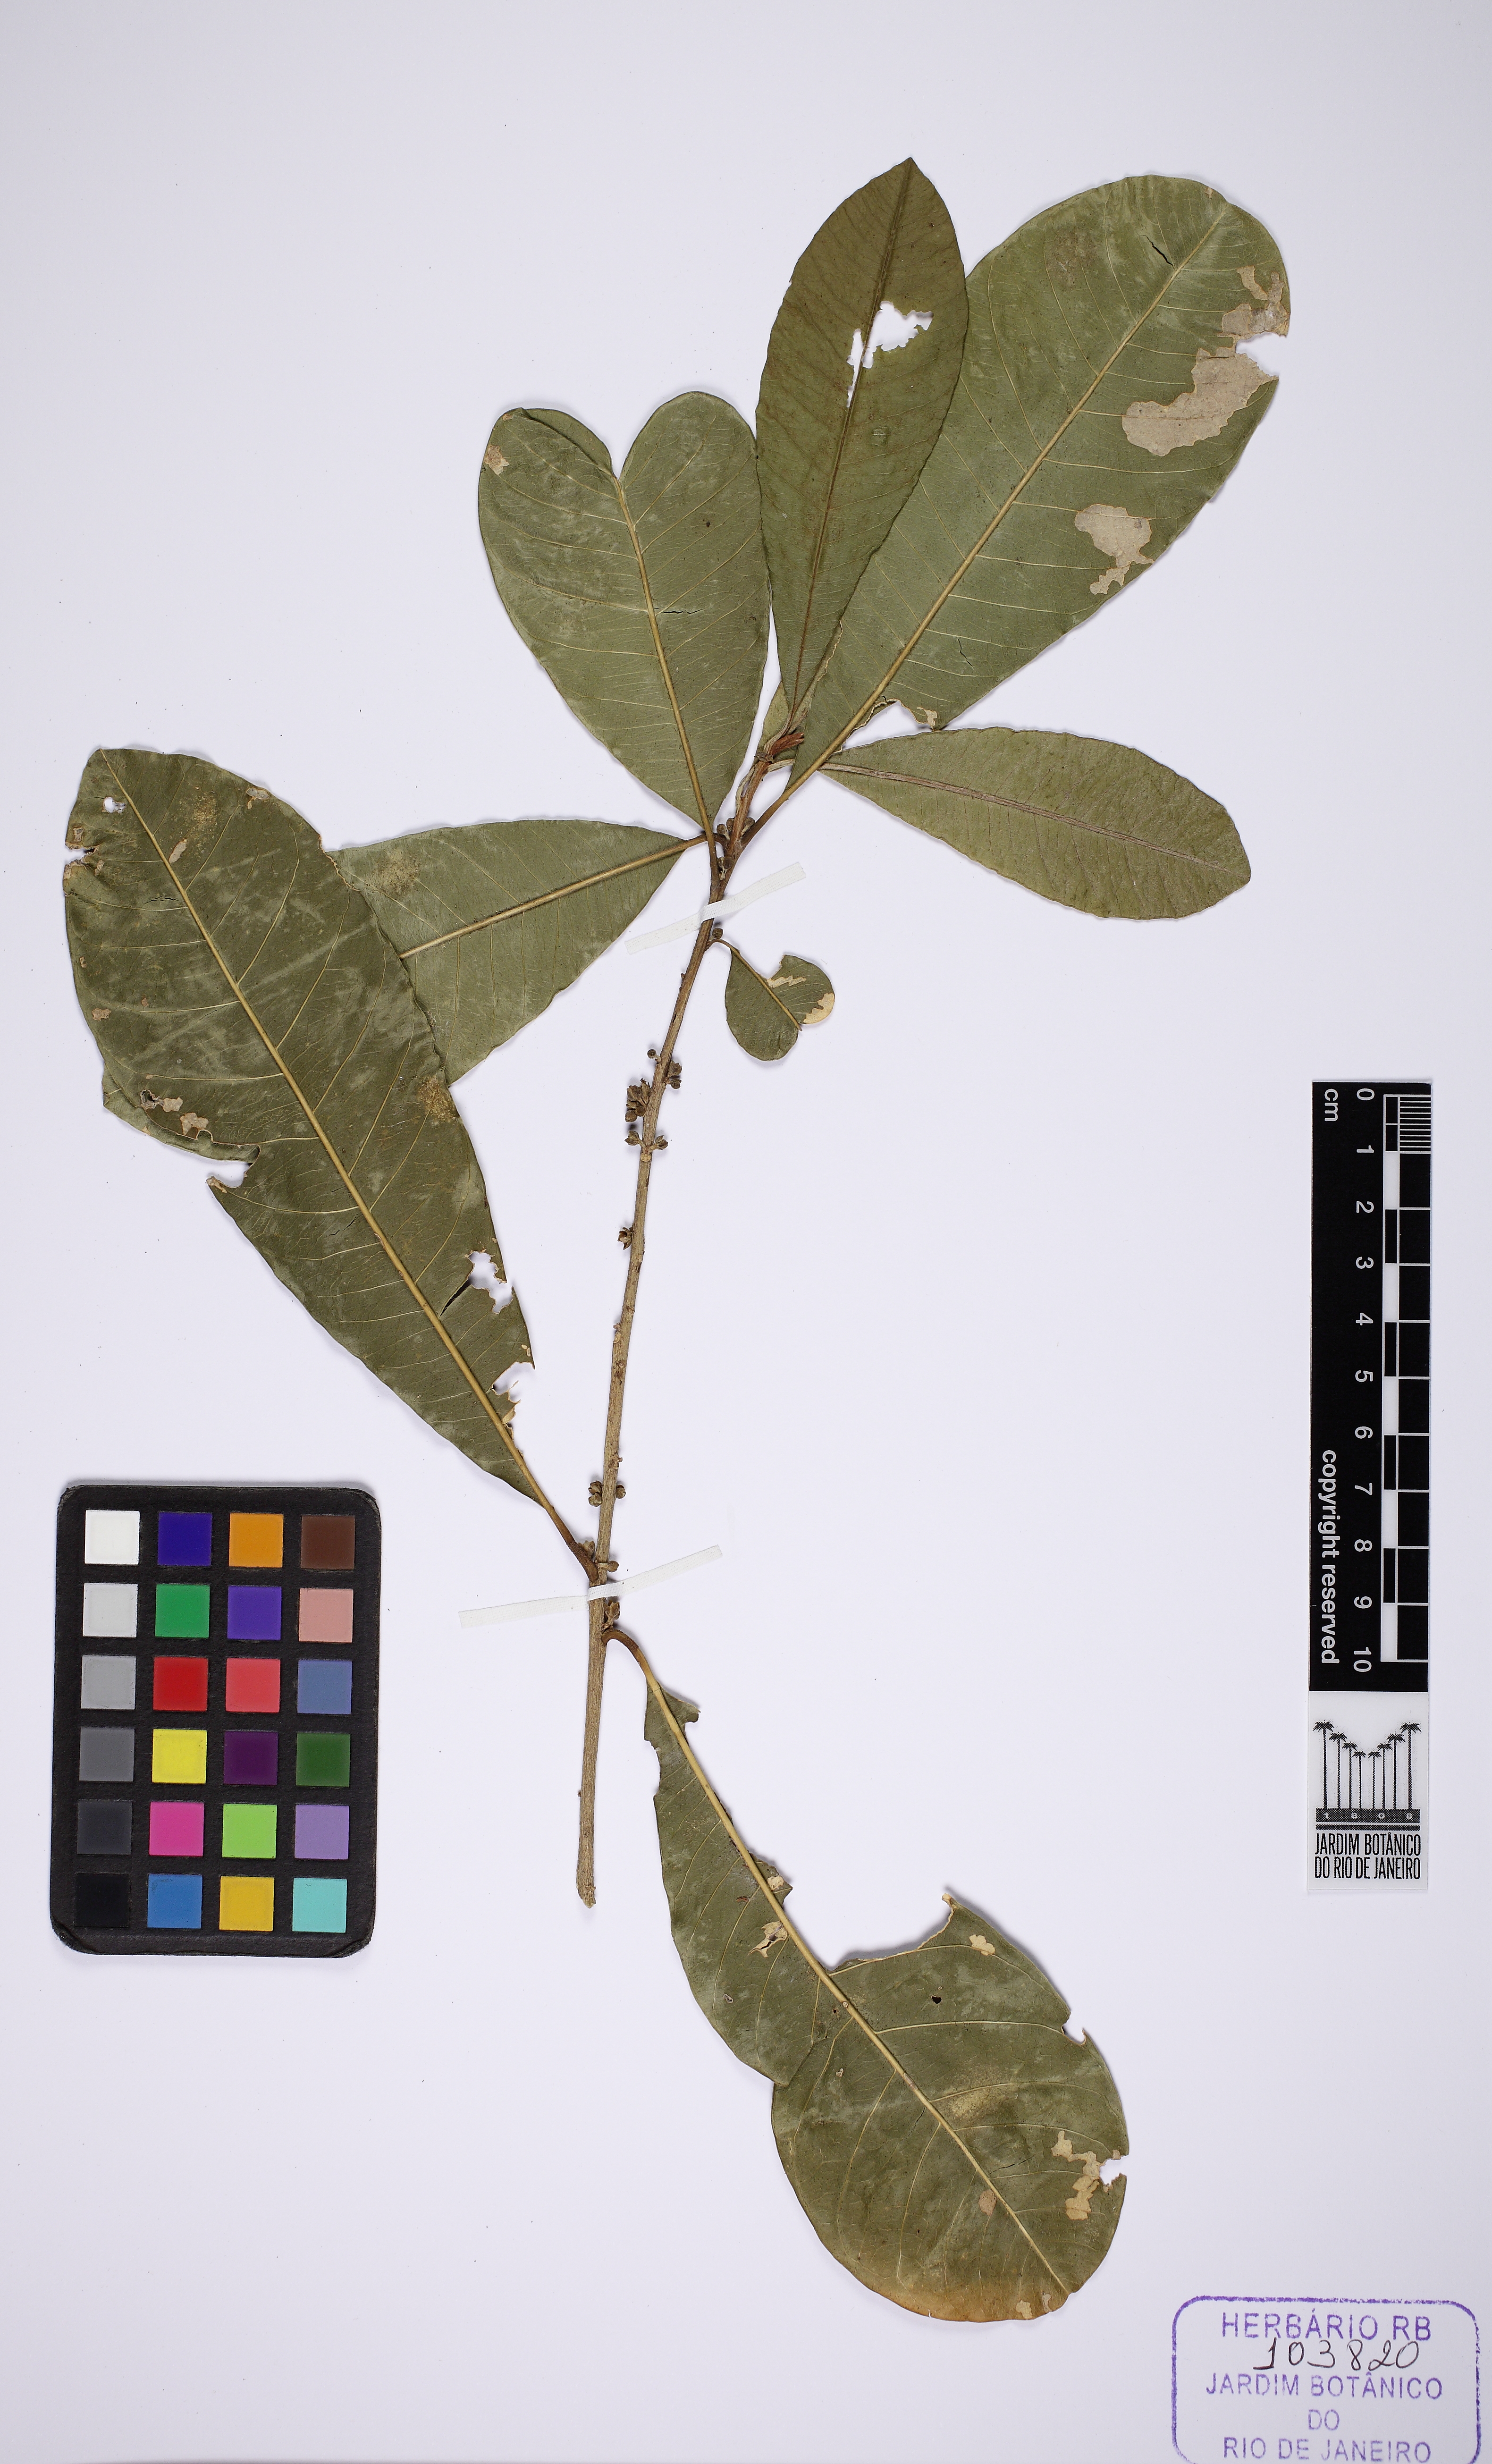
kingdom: Plantae
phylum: Tracheophyta
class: Magnoliopsida
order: Ericales
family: Sapotaceae
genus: Chrysophyllum
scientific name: Chrysophyllum gonocarpum
